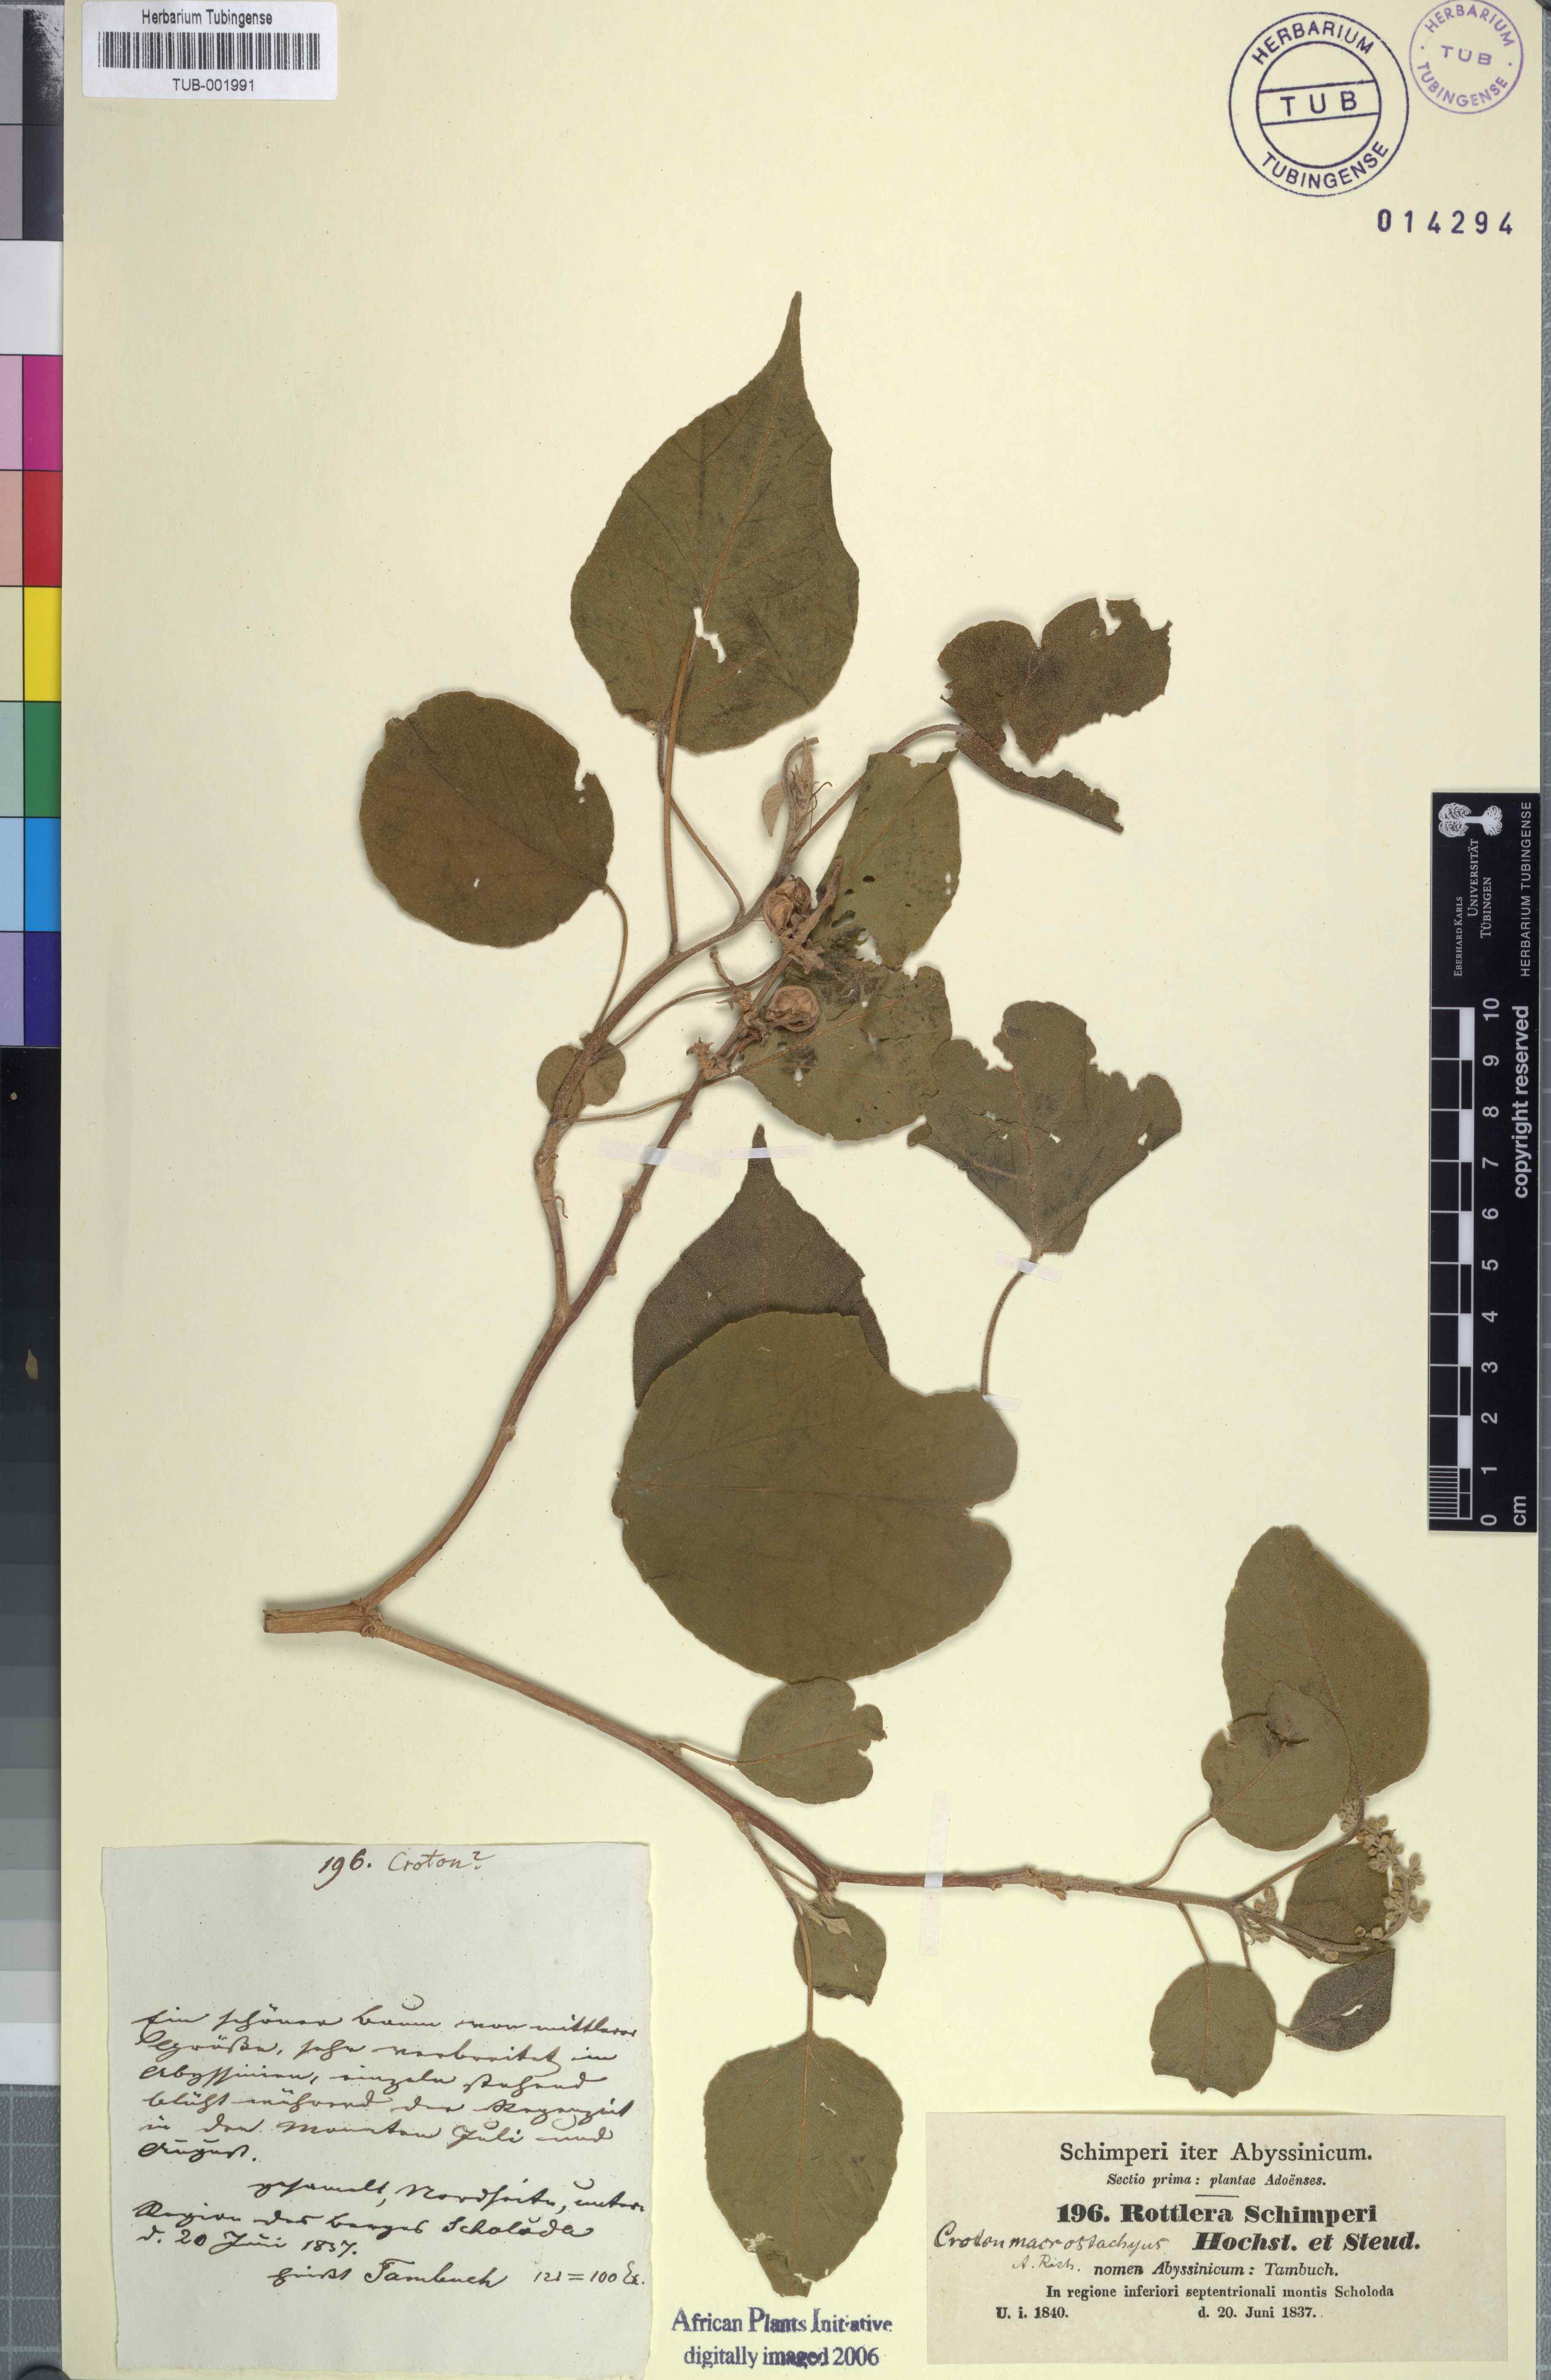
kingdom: Plantae
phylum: Tracheophyta
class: Magnoliopsida
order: Malpighiales
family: Euphorbiaceae
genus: Croton
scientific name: Croton macrostachys
